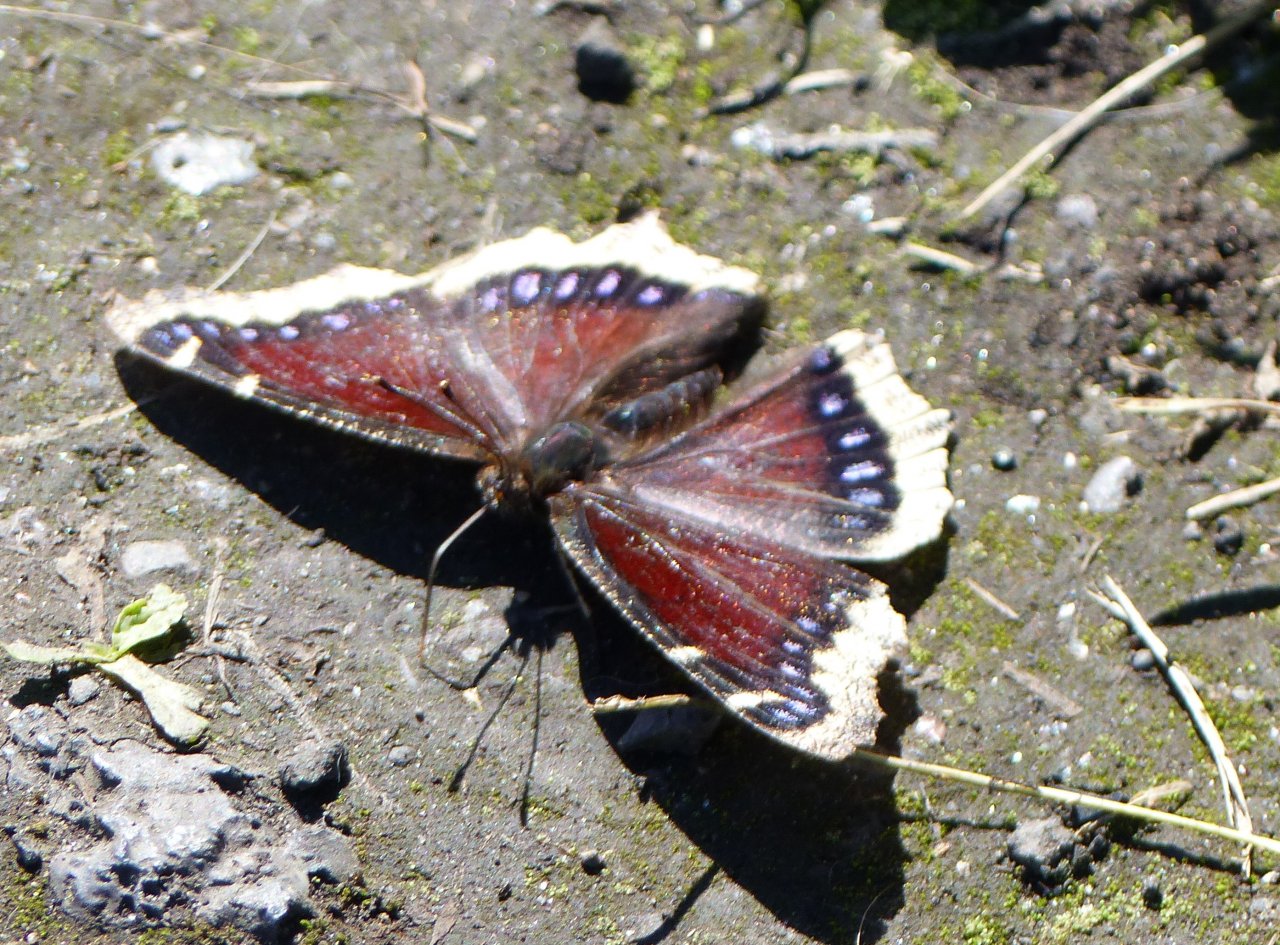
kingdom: Animalia
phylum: Arthropoda
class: Insecta
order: Lepidoptera
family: Nymphalidae
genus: Nymphalis
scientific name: Nymphalis antiopa
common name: Mourning Cloak
